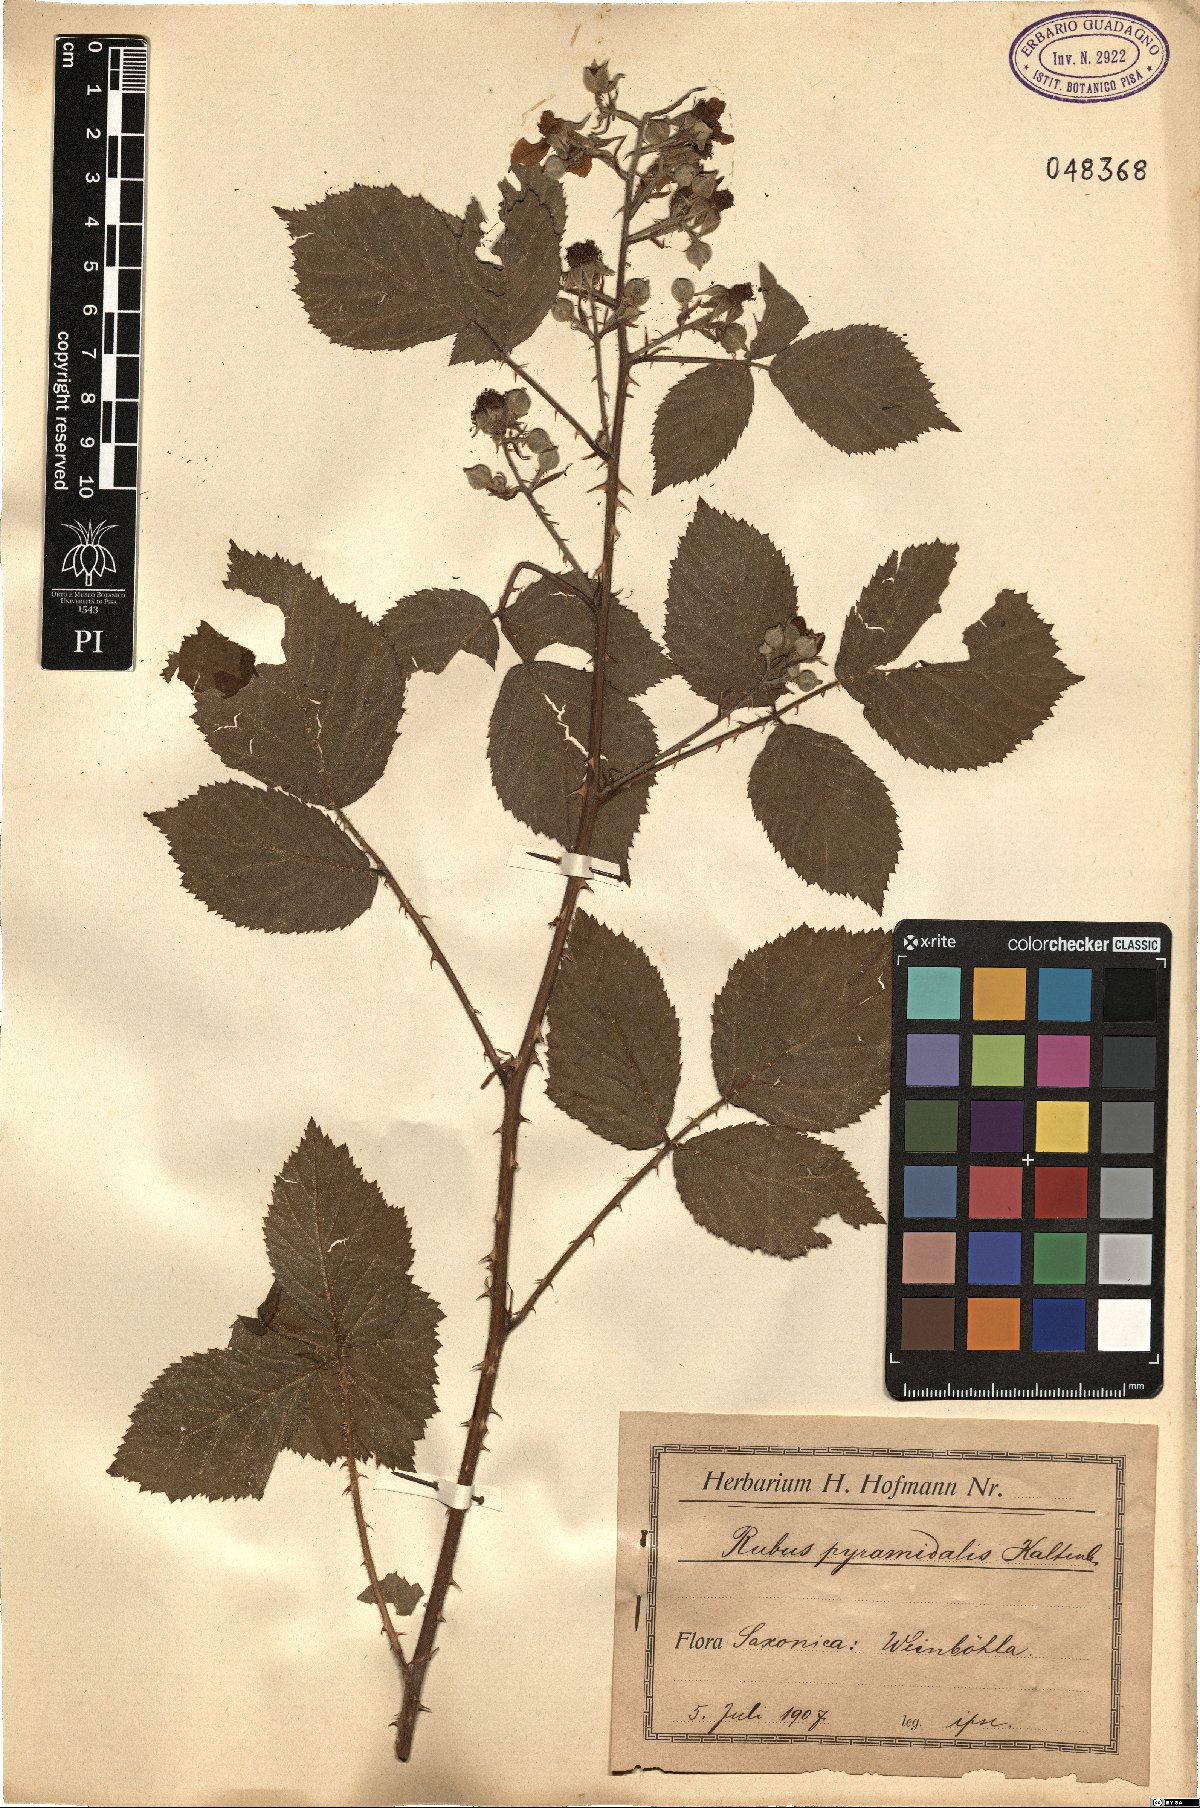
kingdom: Plantae
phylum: Tracheophyta
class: Magnoliopsida
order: Rosales
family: Rosaceae
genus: Rubus
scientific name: Rubus umbrosus
